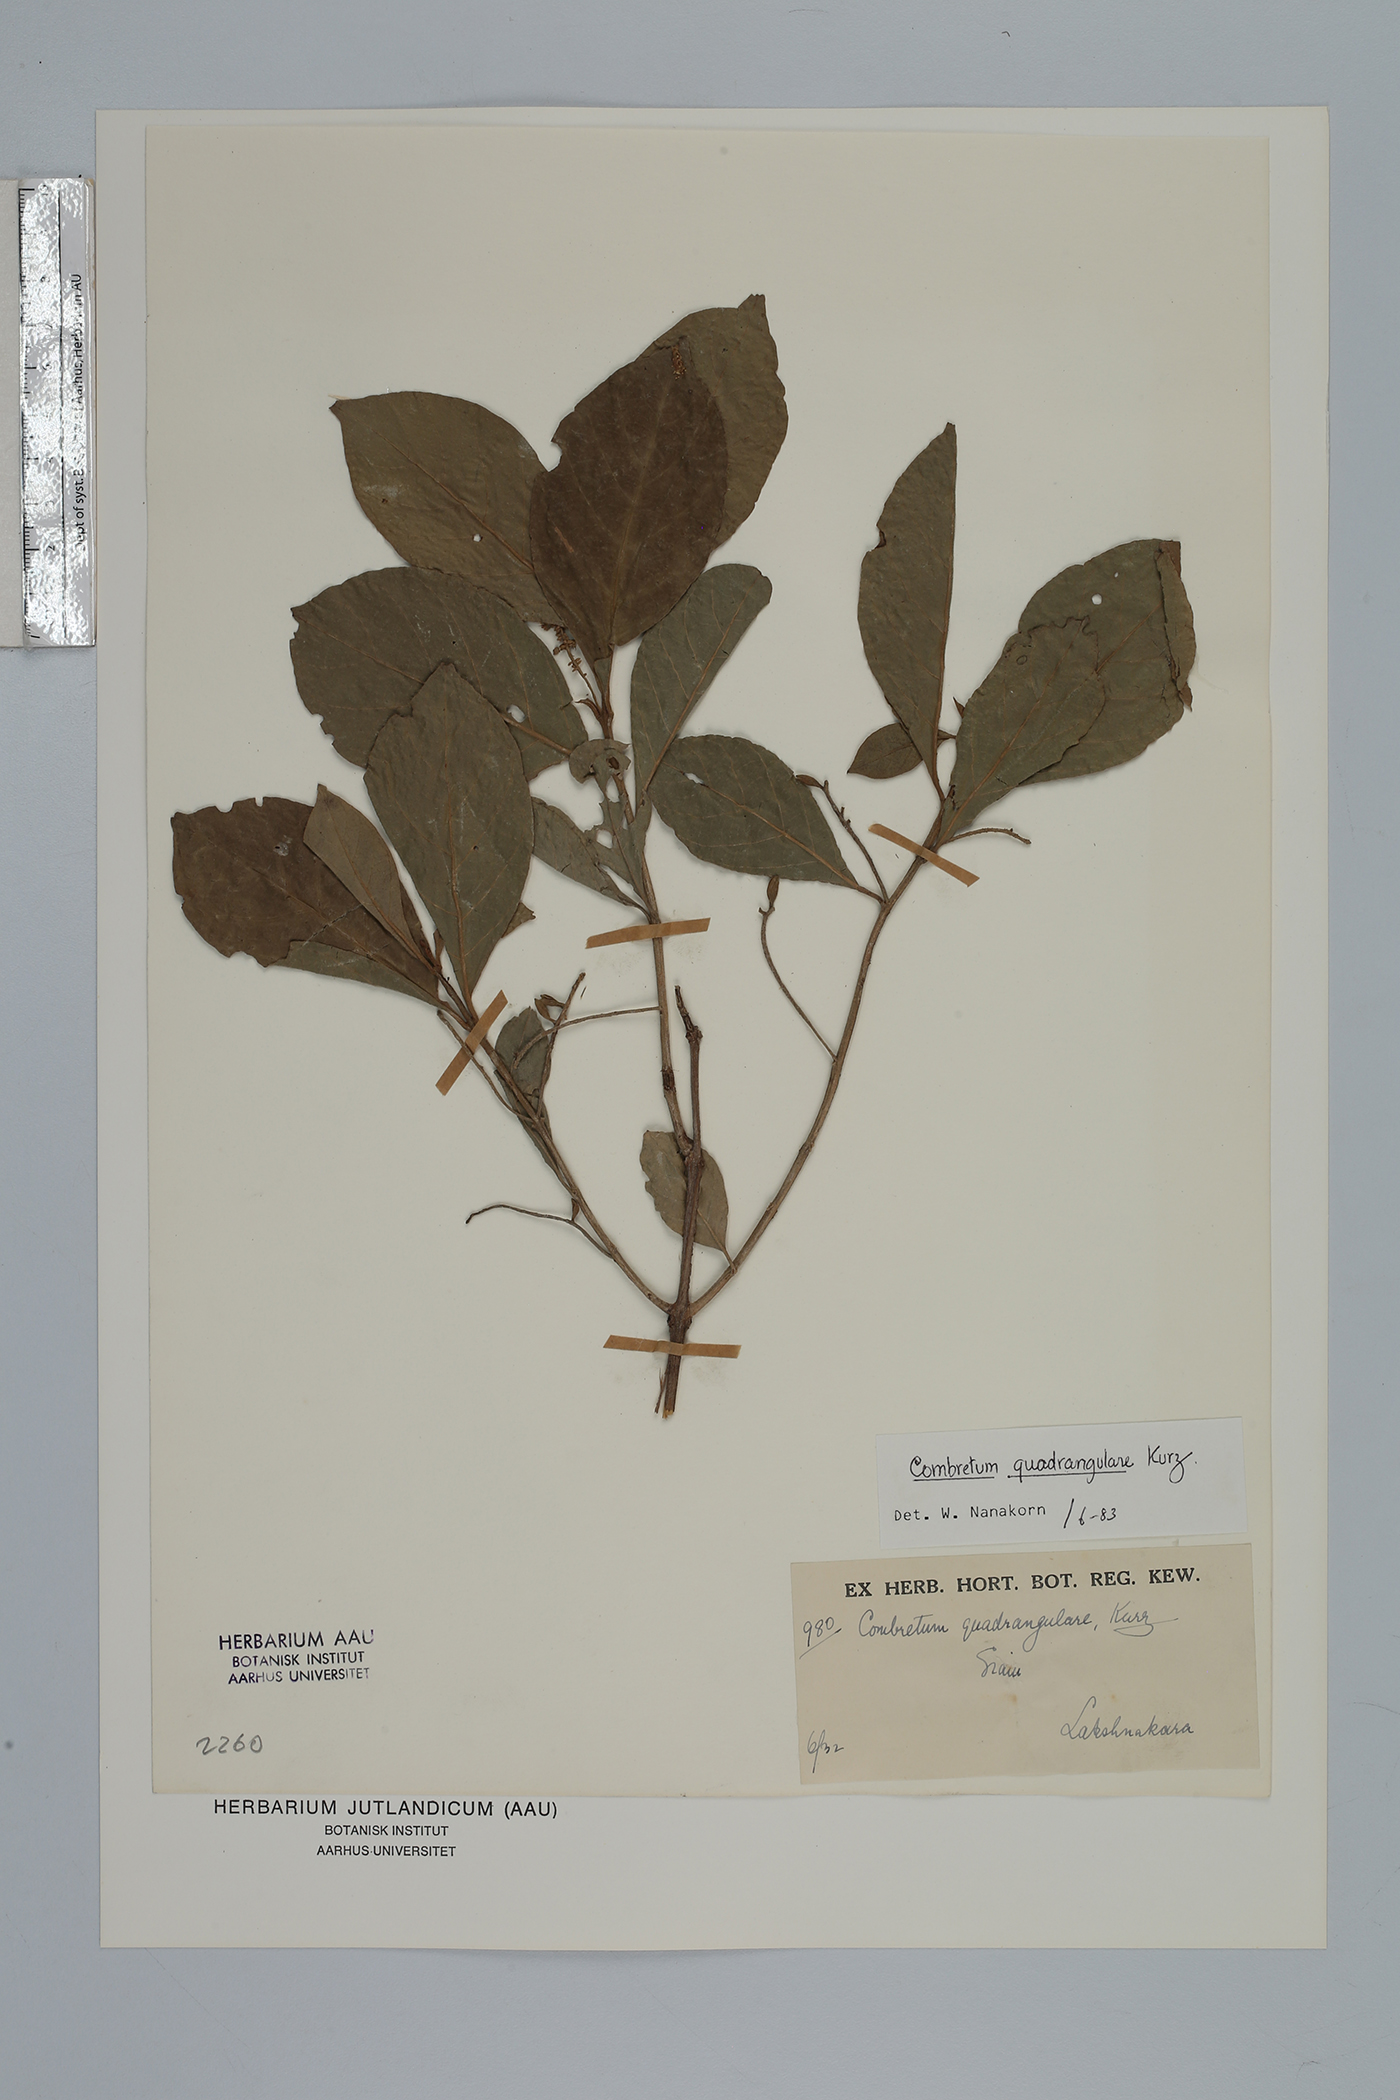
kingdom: Plantae
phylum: Tracheophyta
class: Magnoliopsida
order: Myrtales
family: Combretaceae
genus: Combretum
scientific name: Combretum quadrangulare
